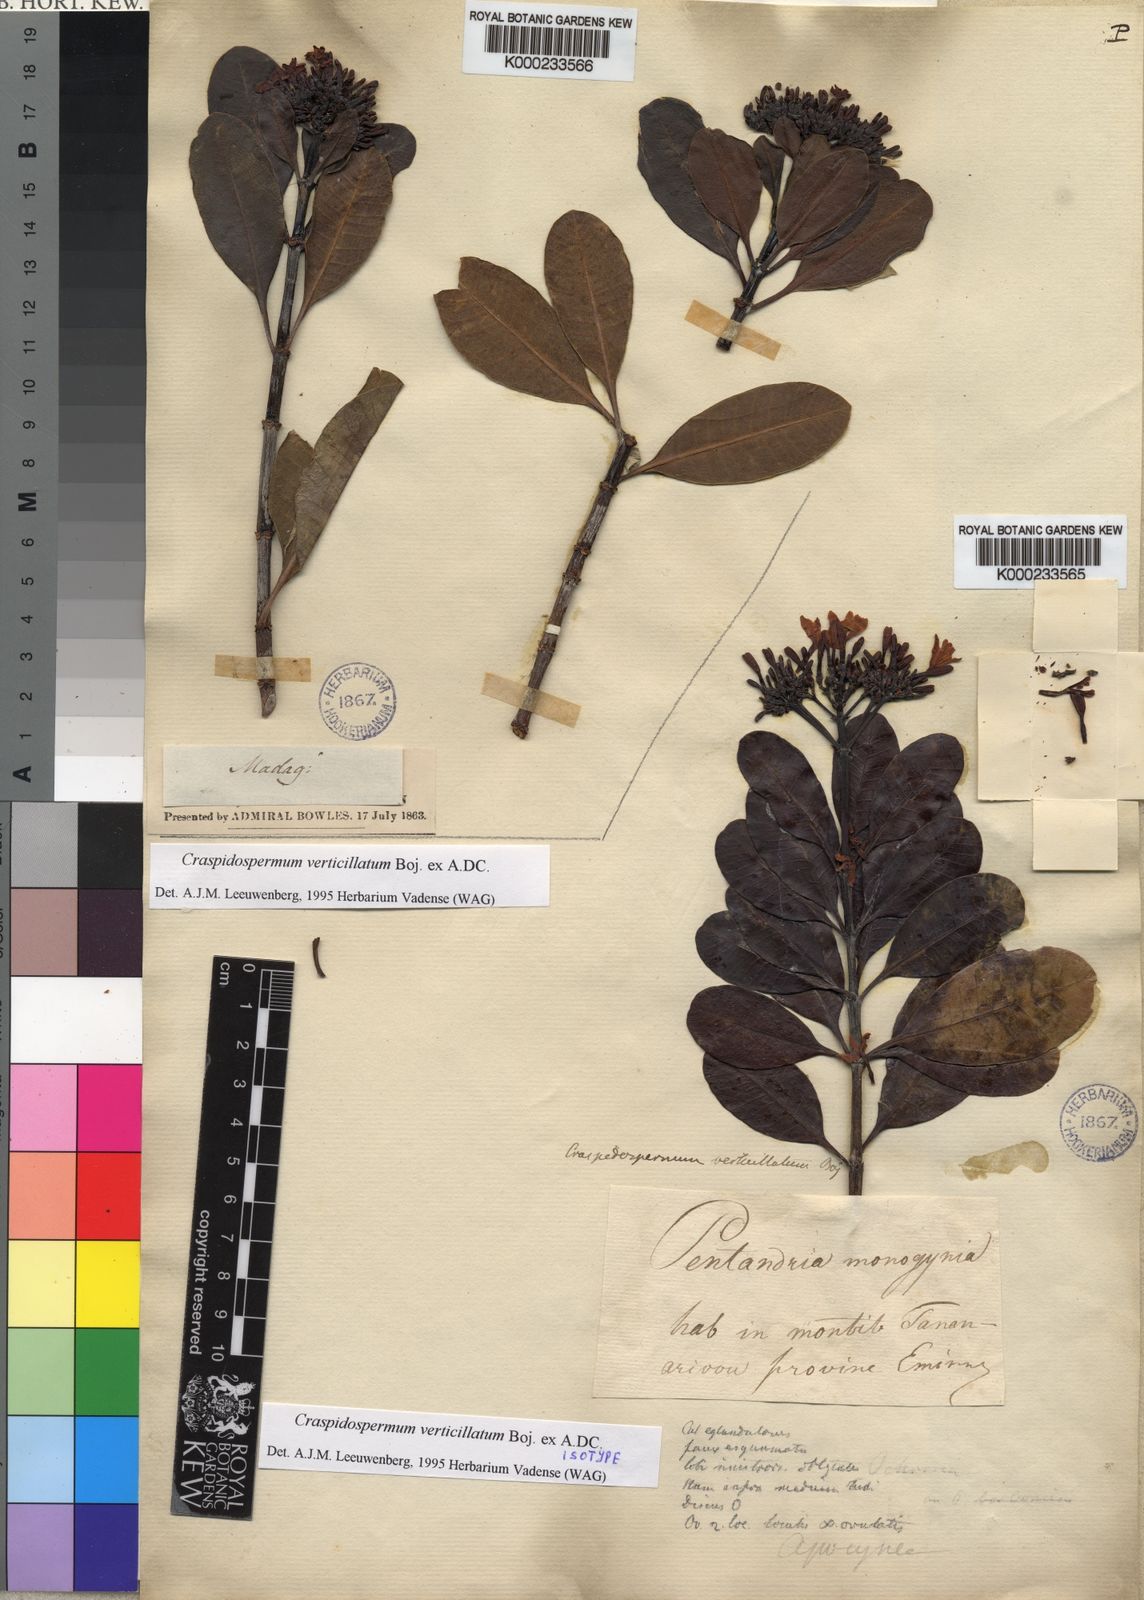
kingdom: Plantae
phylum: Tracheophyta
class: Magnoliopsida
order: Gentianales
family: Apocynaceae
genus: Craspidospermum
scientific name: Craspidospermum
